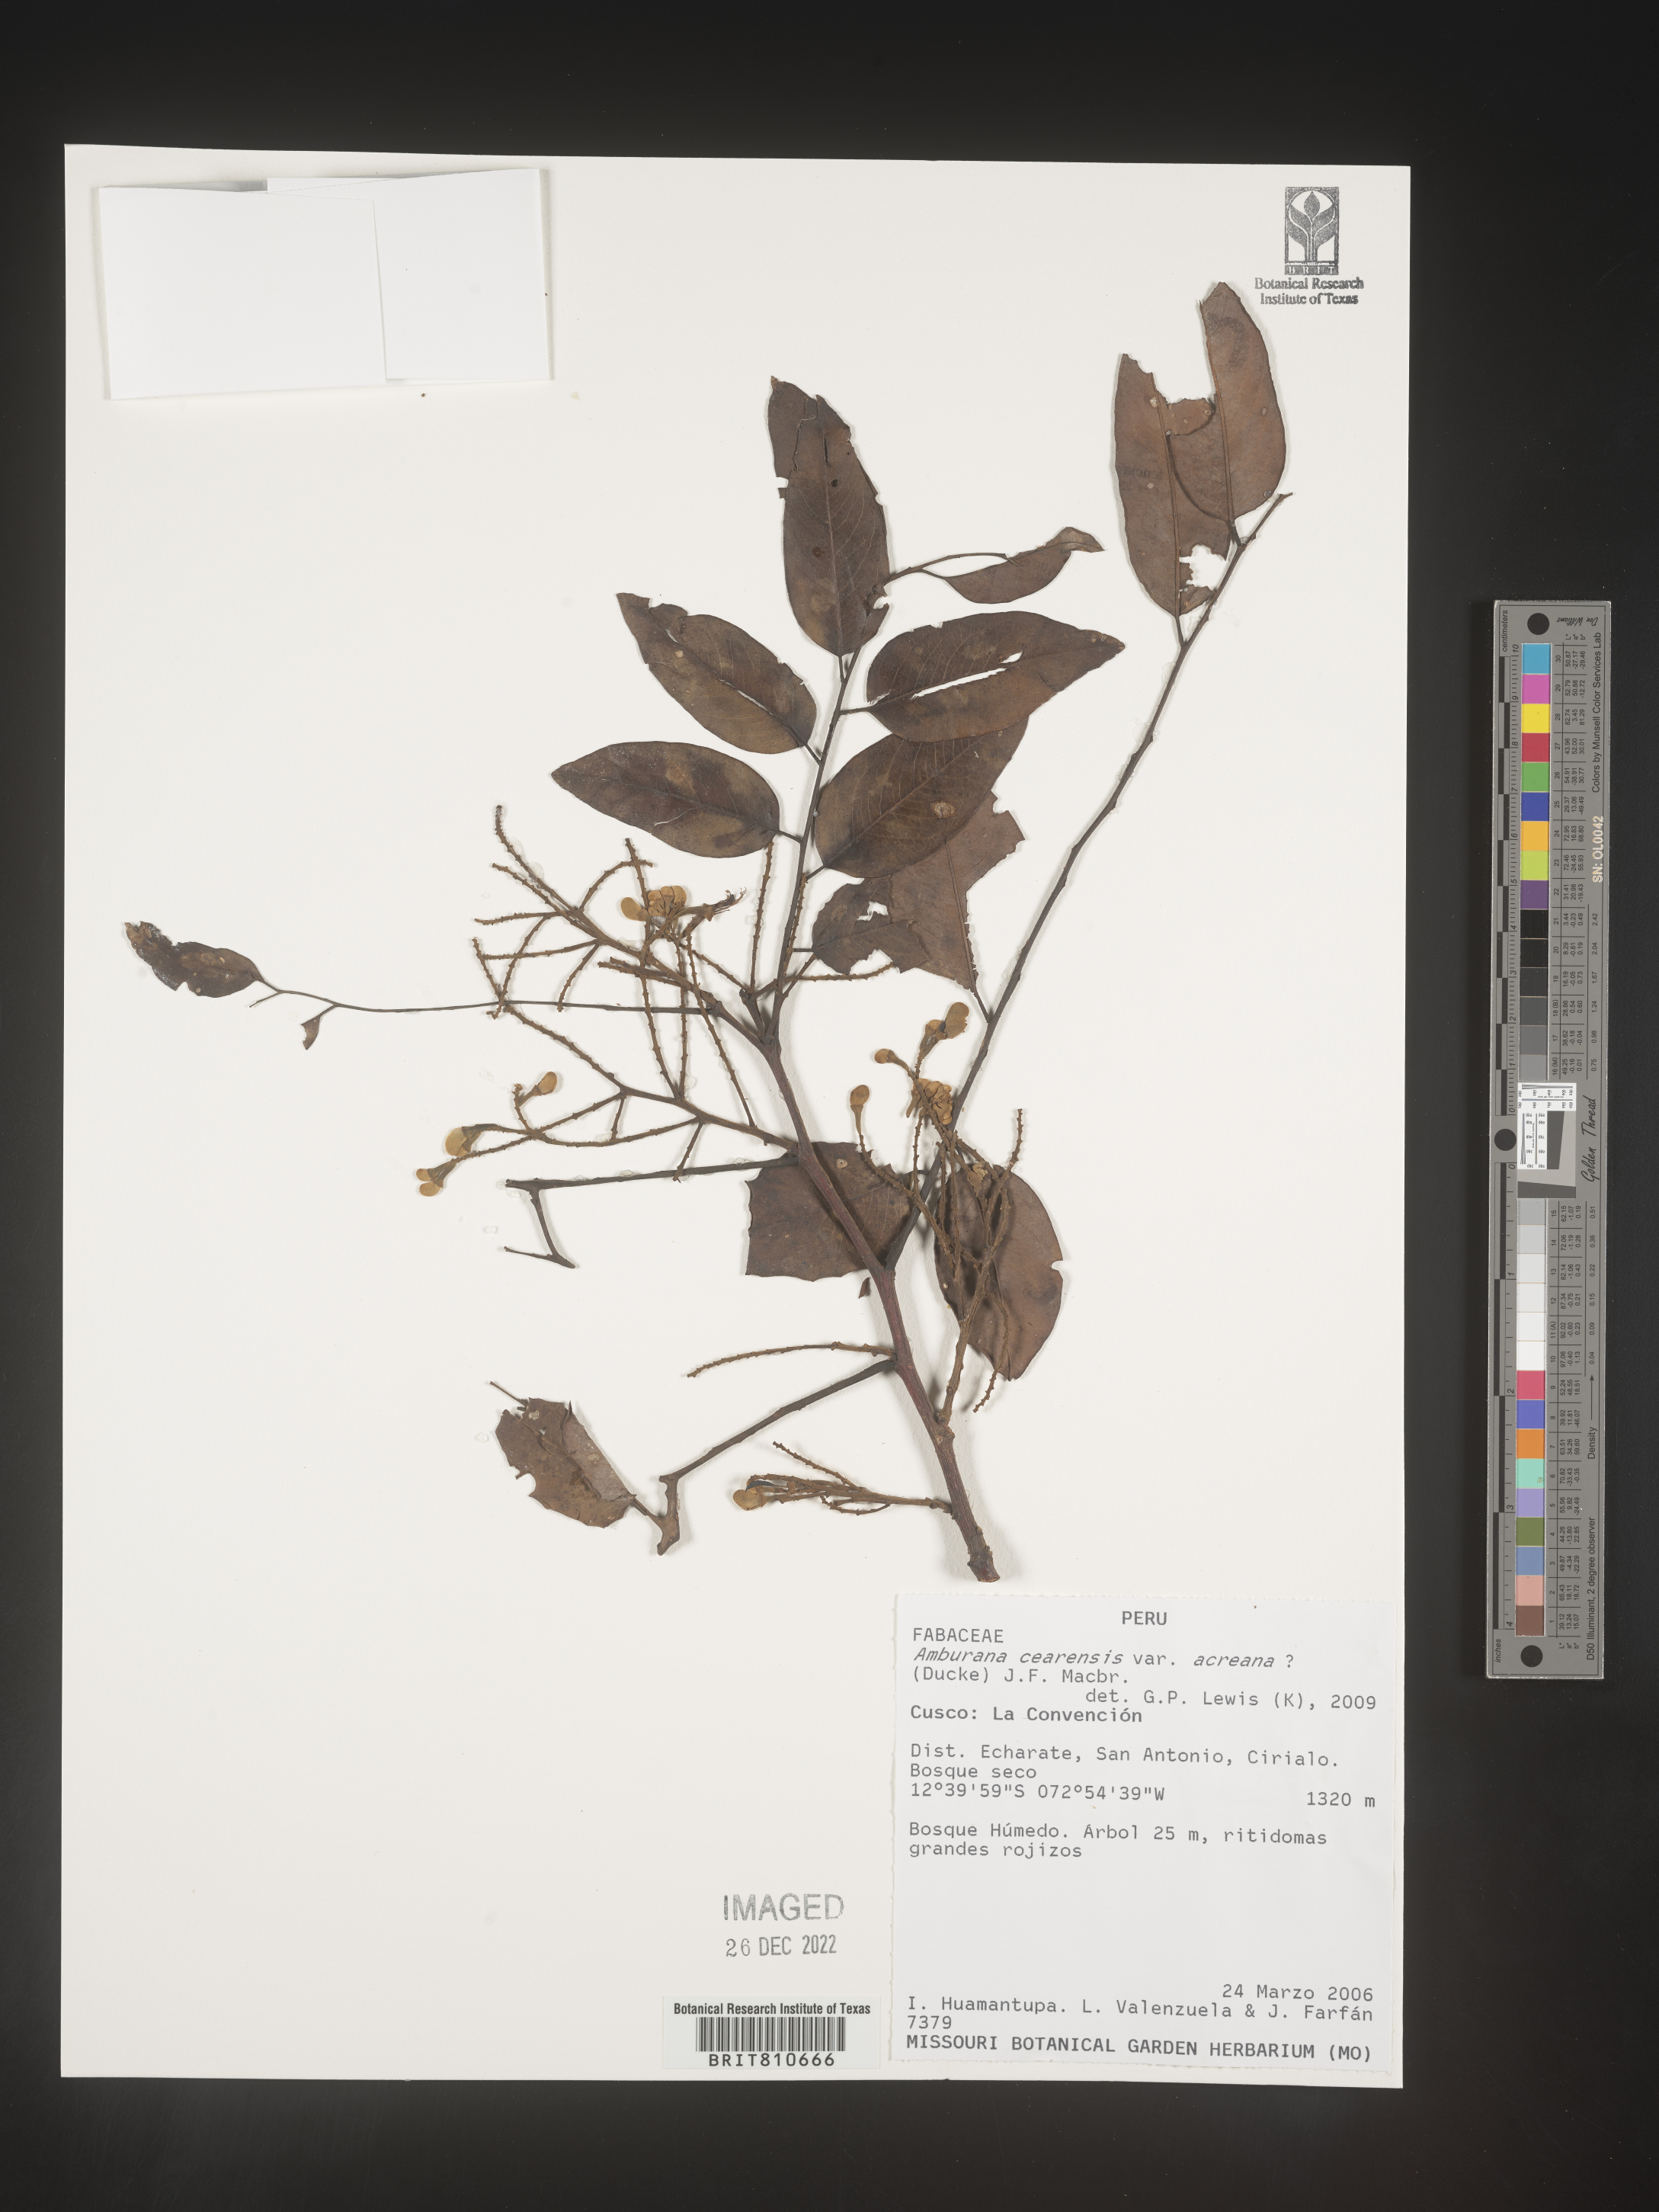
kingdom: Plantae
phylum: Tracheophyta
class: Magnoliopsida
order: Fabales
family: Fabaceae
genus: Amburana
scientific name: Amburana
